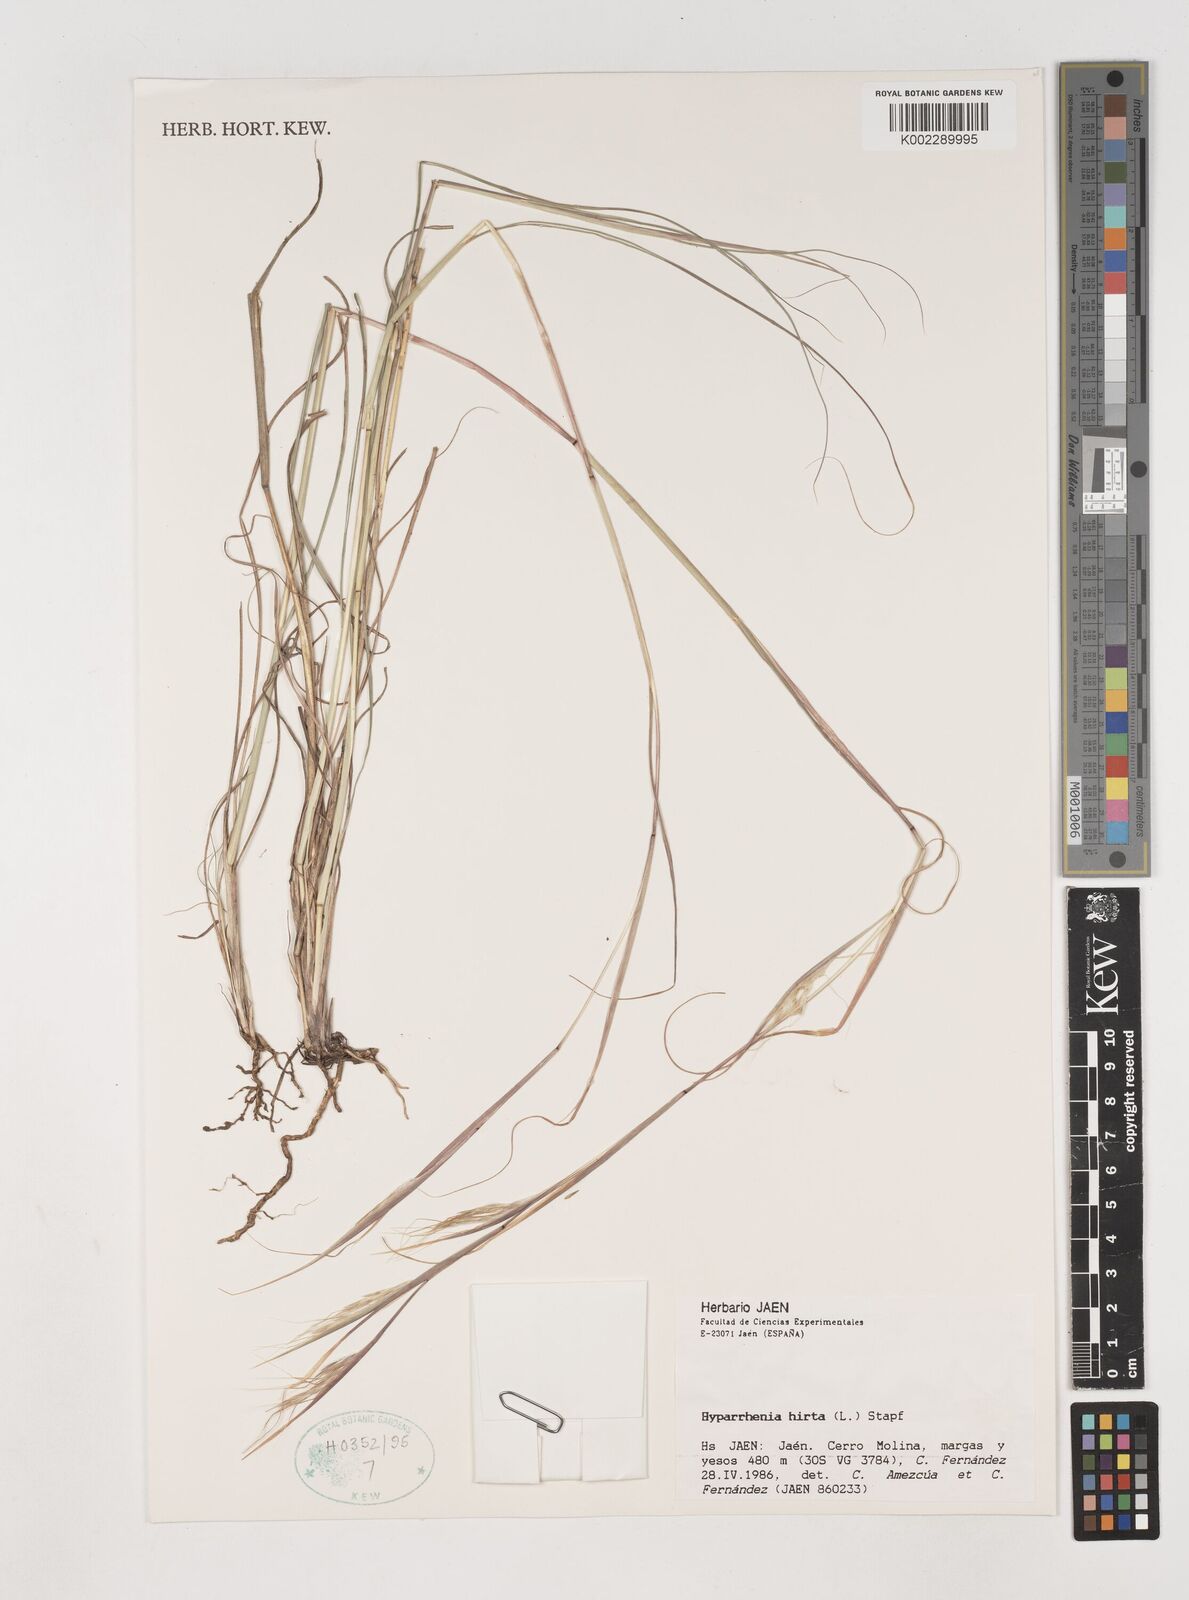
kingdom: Plantae
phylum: Tracheophyta
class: Liliopsida
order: Poales
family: Poaceae
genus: Hyparrhenia
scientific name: Hyparrhenia hirta
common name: Thatching grass
